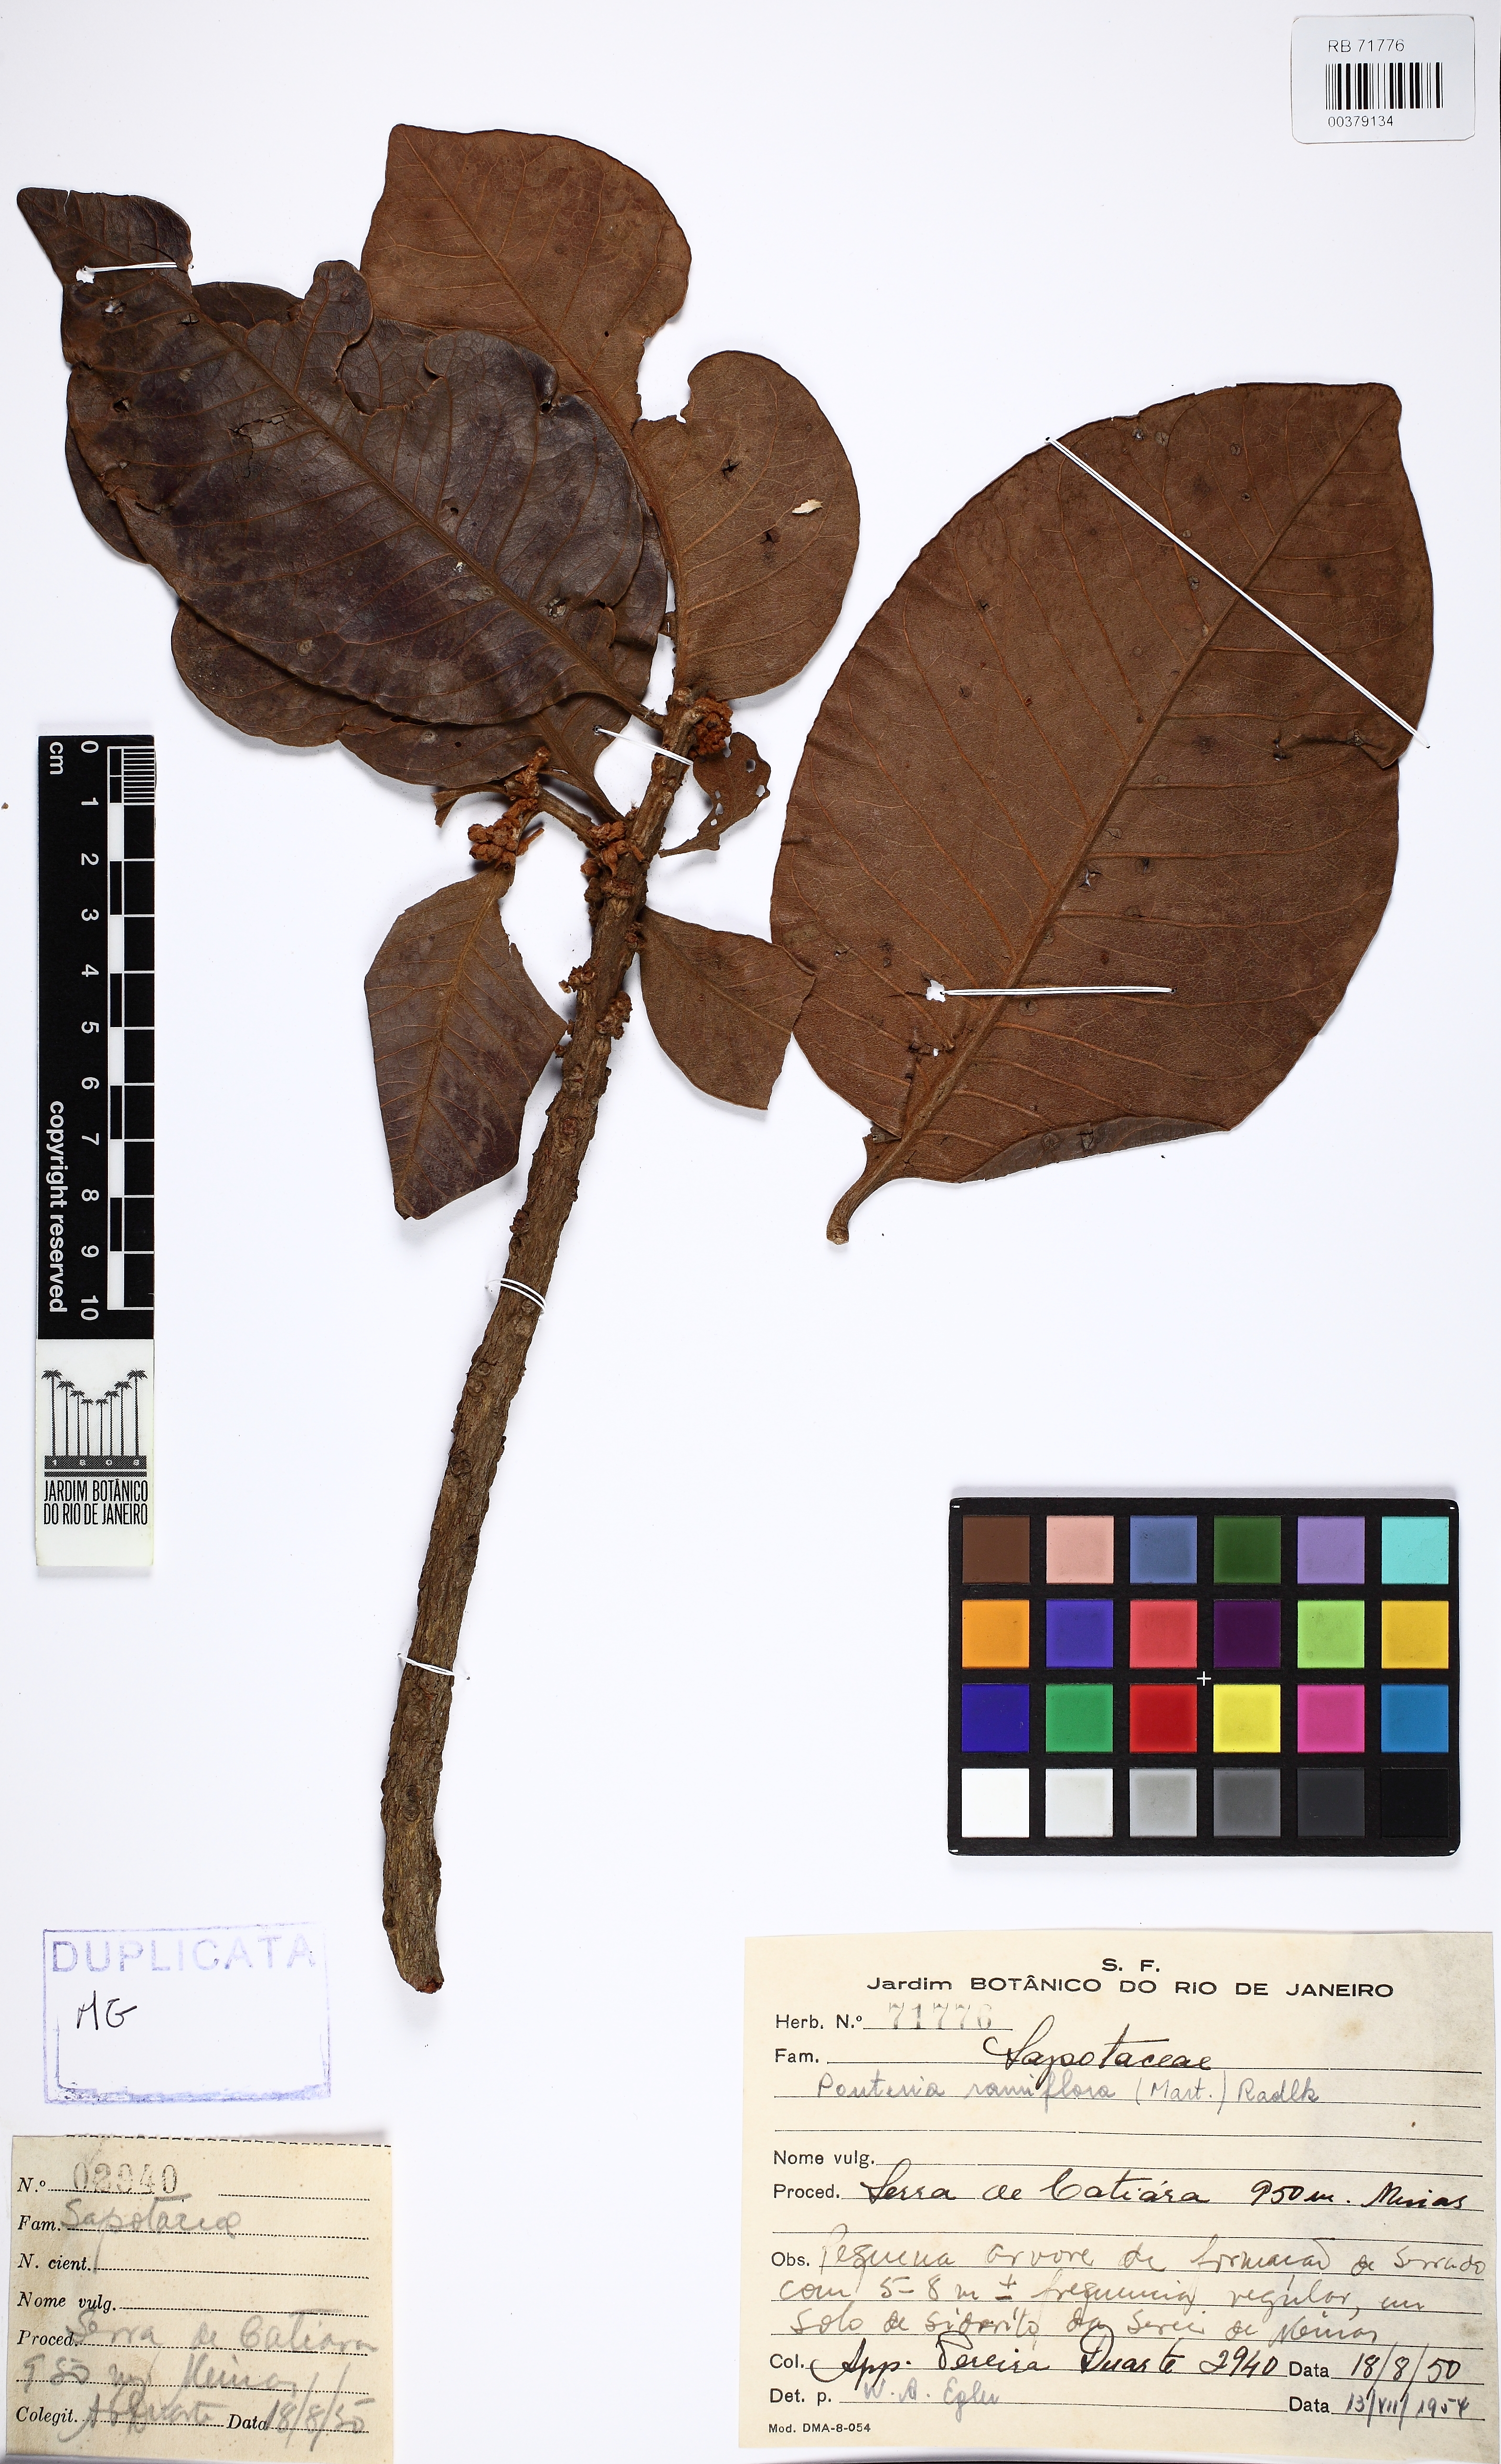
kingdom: Plantae
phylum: Tracheophyta
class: Magnoliopsida
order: Ericales
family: Sapotaceae
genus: Pouteria
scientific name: Pouteria ramiflora
